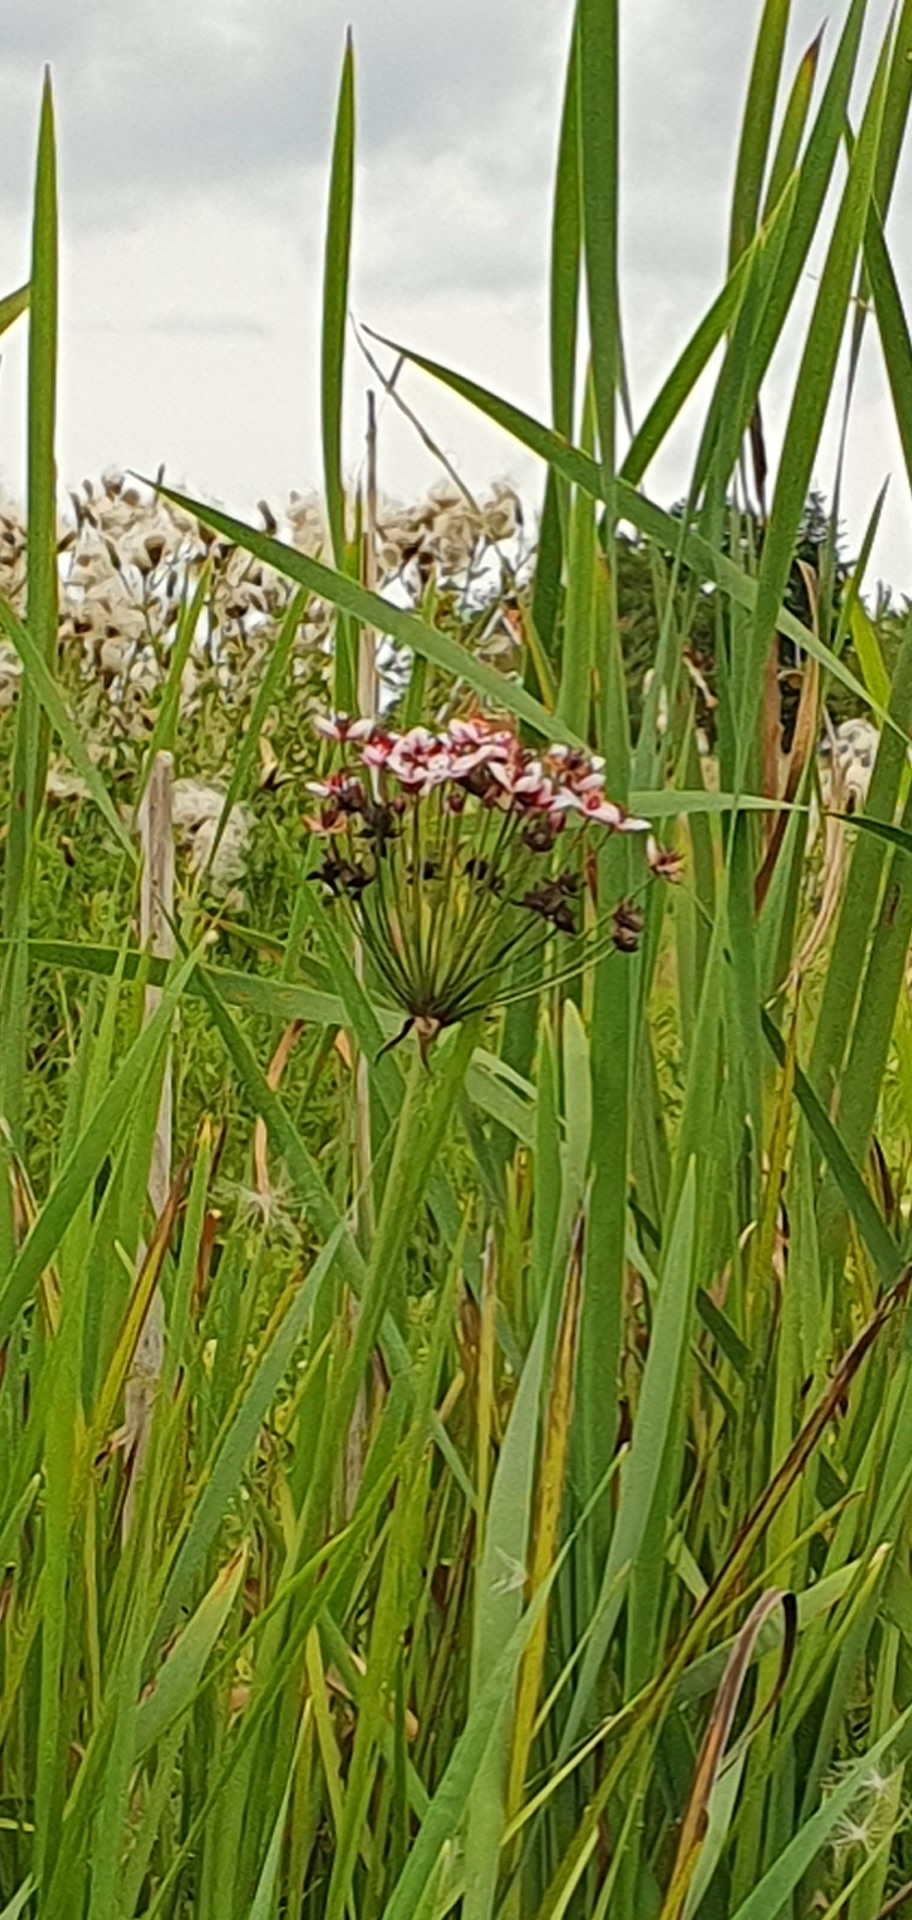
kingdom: Plantae
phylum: Tracheophyta
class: Liliopsida
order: Alismatales
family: Butomaceae
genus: Butomus
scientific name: Butomus umbellatus
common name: Brudelys
